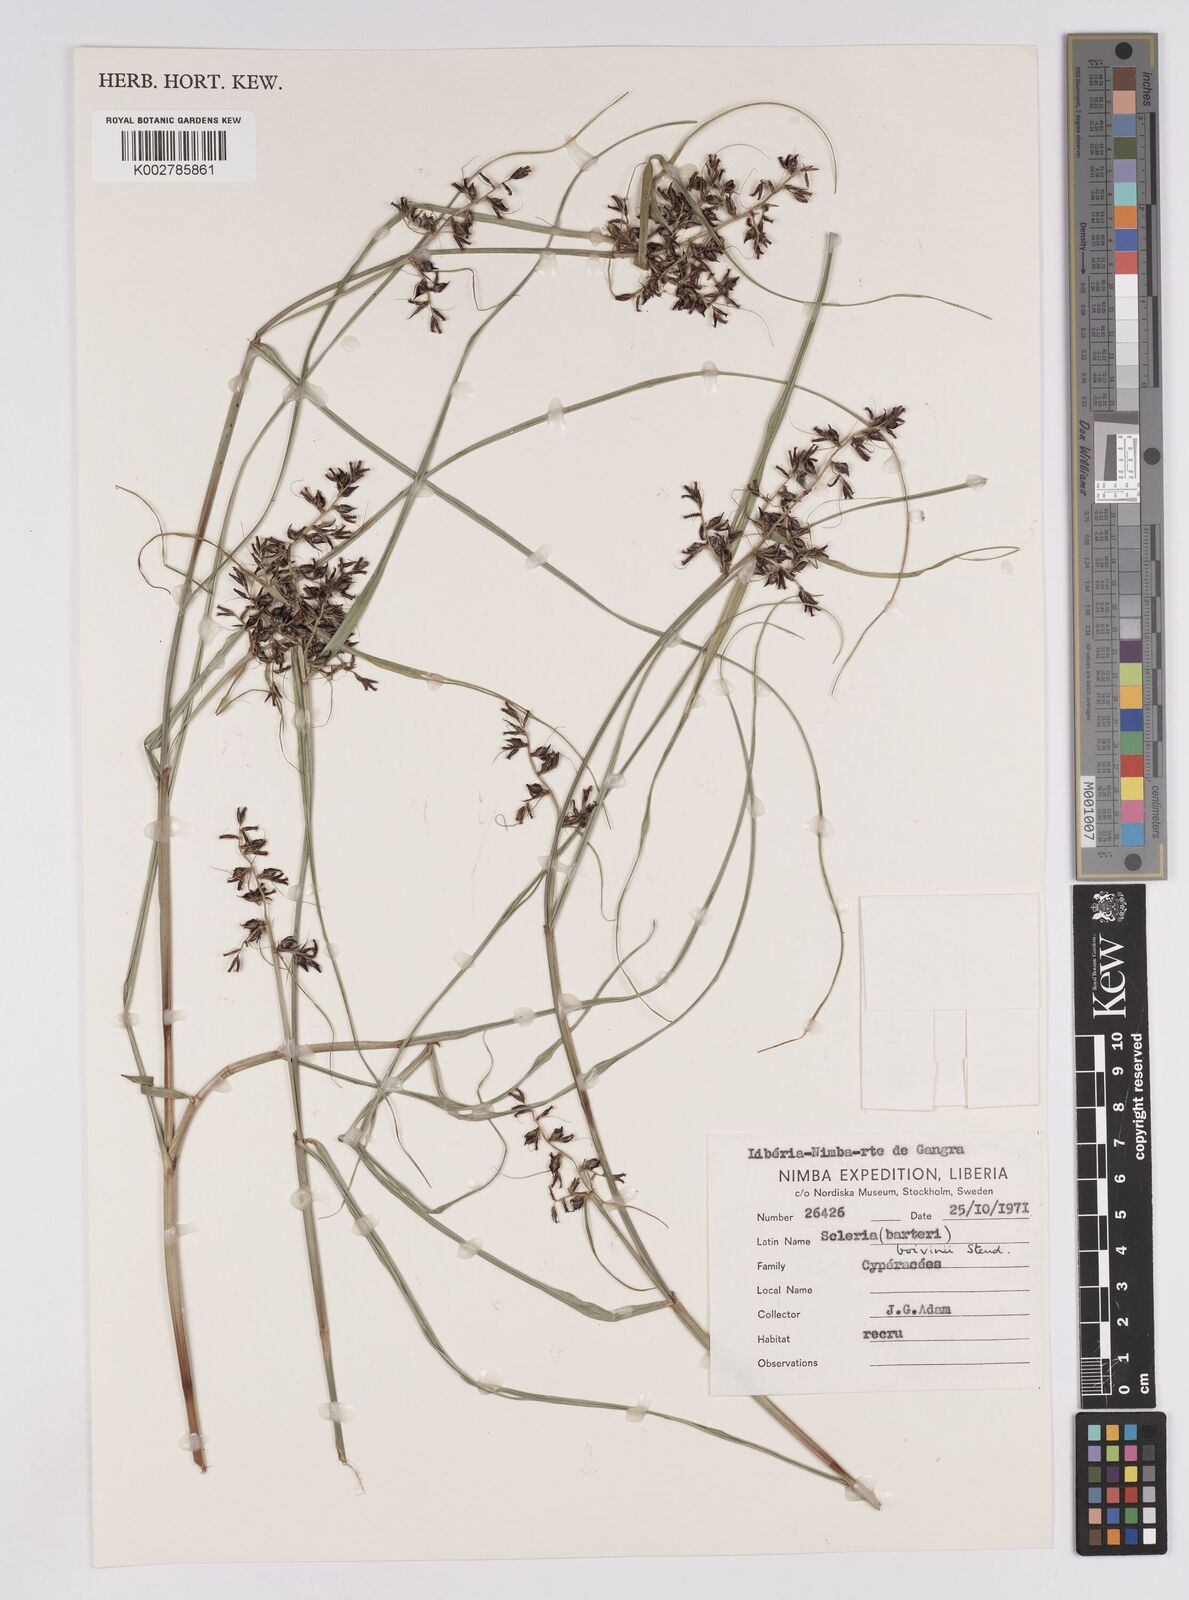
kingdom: Plantae
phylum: Tracheophyta
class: Liliopsida
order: Poales
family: Cyperaceae
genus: Scleria
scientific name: Scleria boivinii
